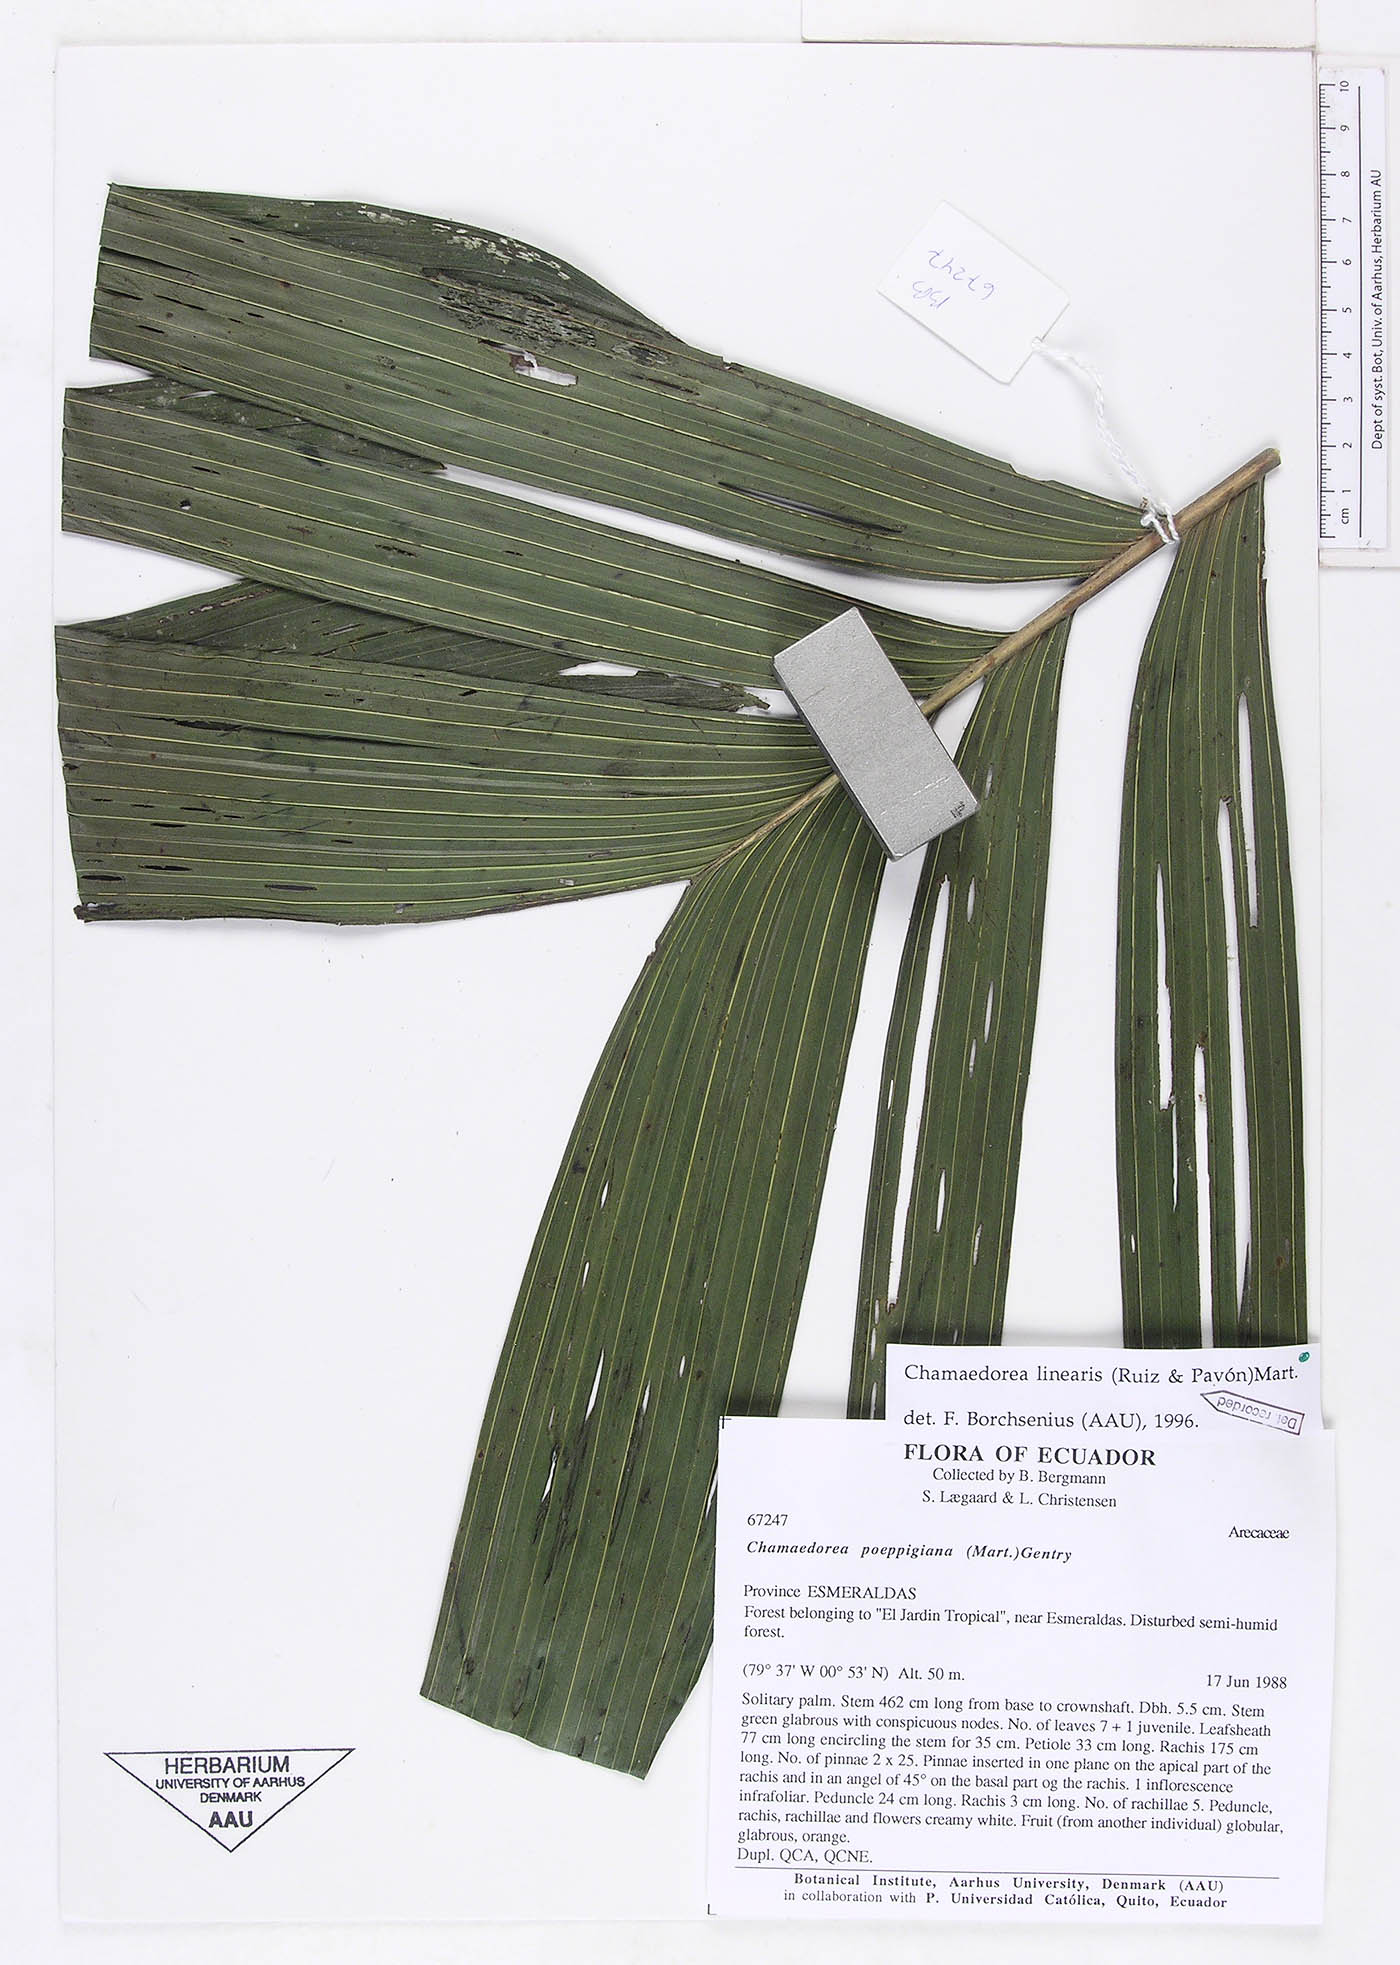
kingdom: Plantae
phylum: Tracheophyta
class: Liliopsida
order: Arecales
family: Arecaceae
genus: Chamaedorea
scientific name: Chamaedorea linearis
